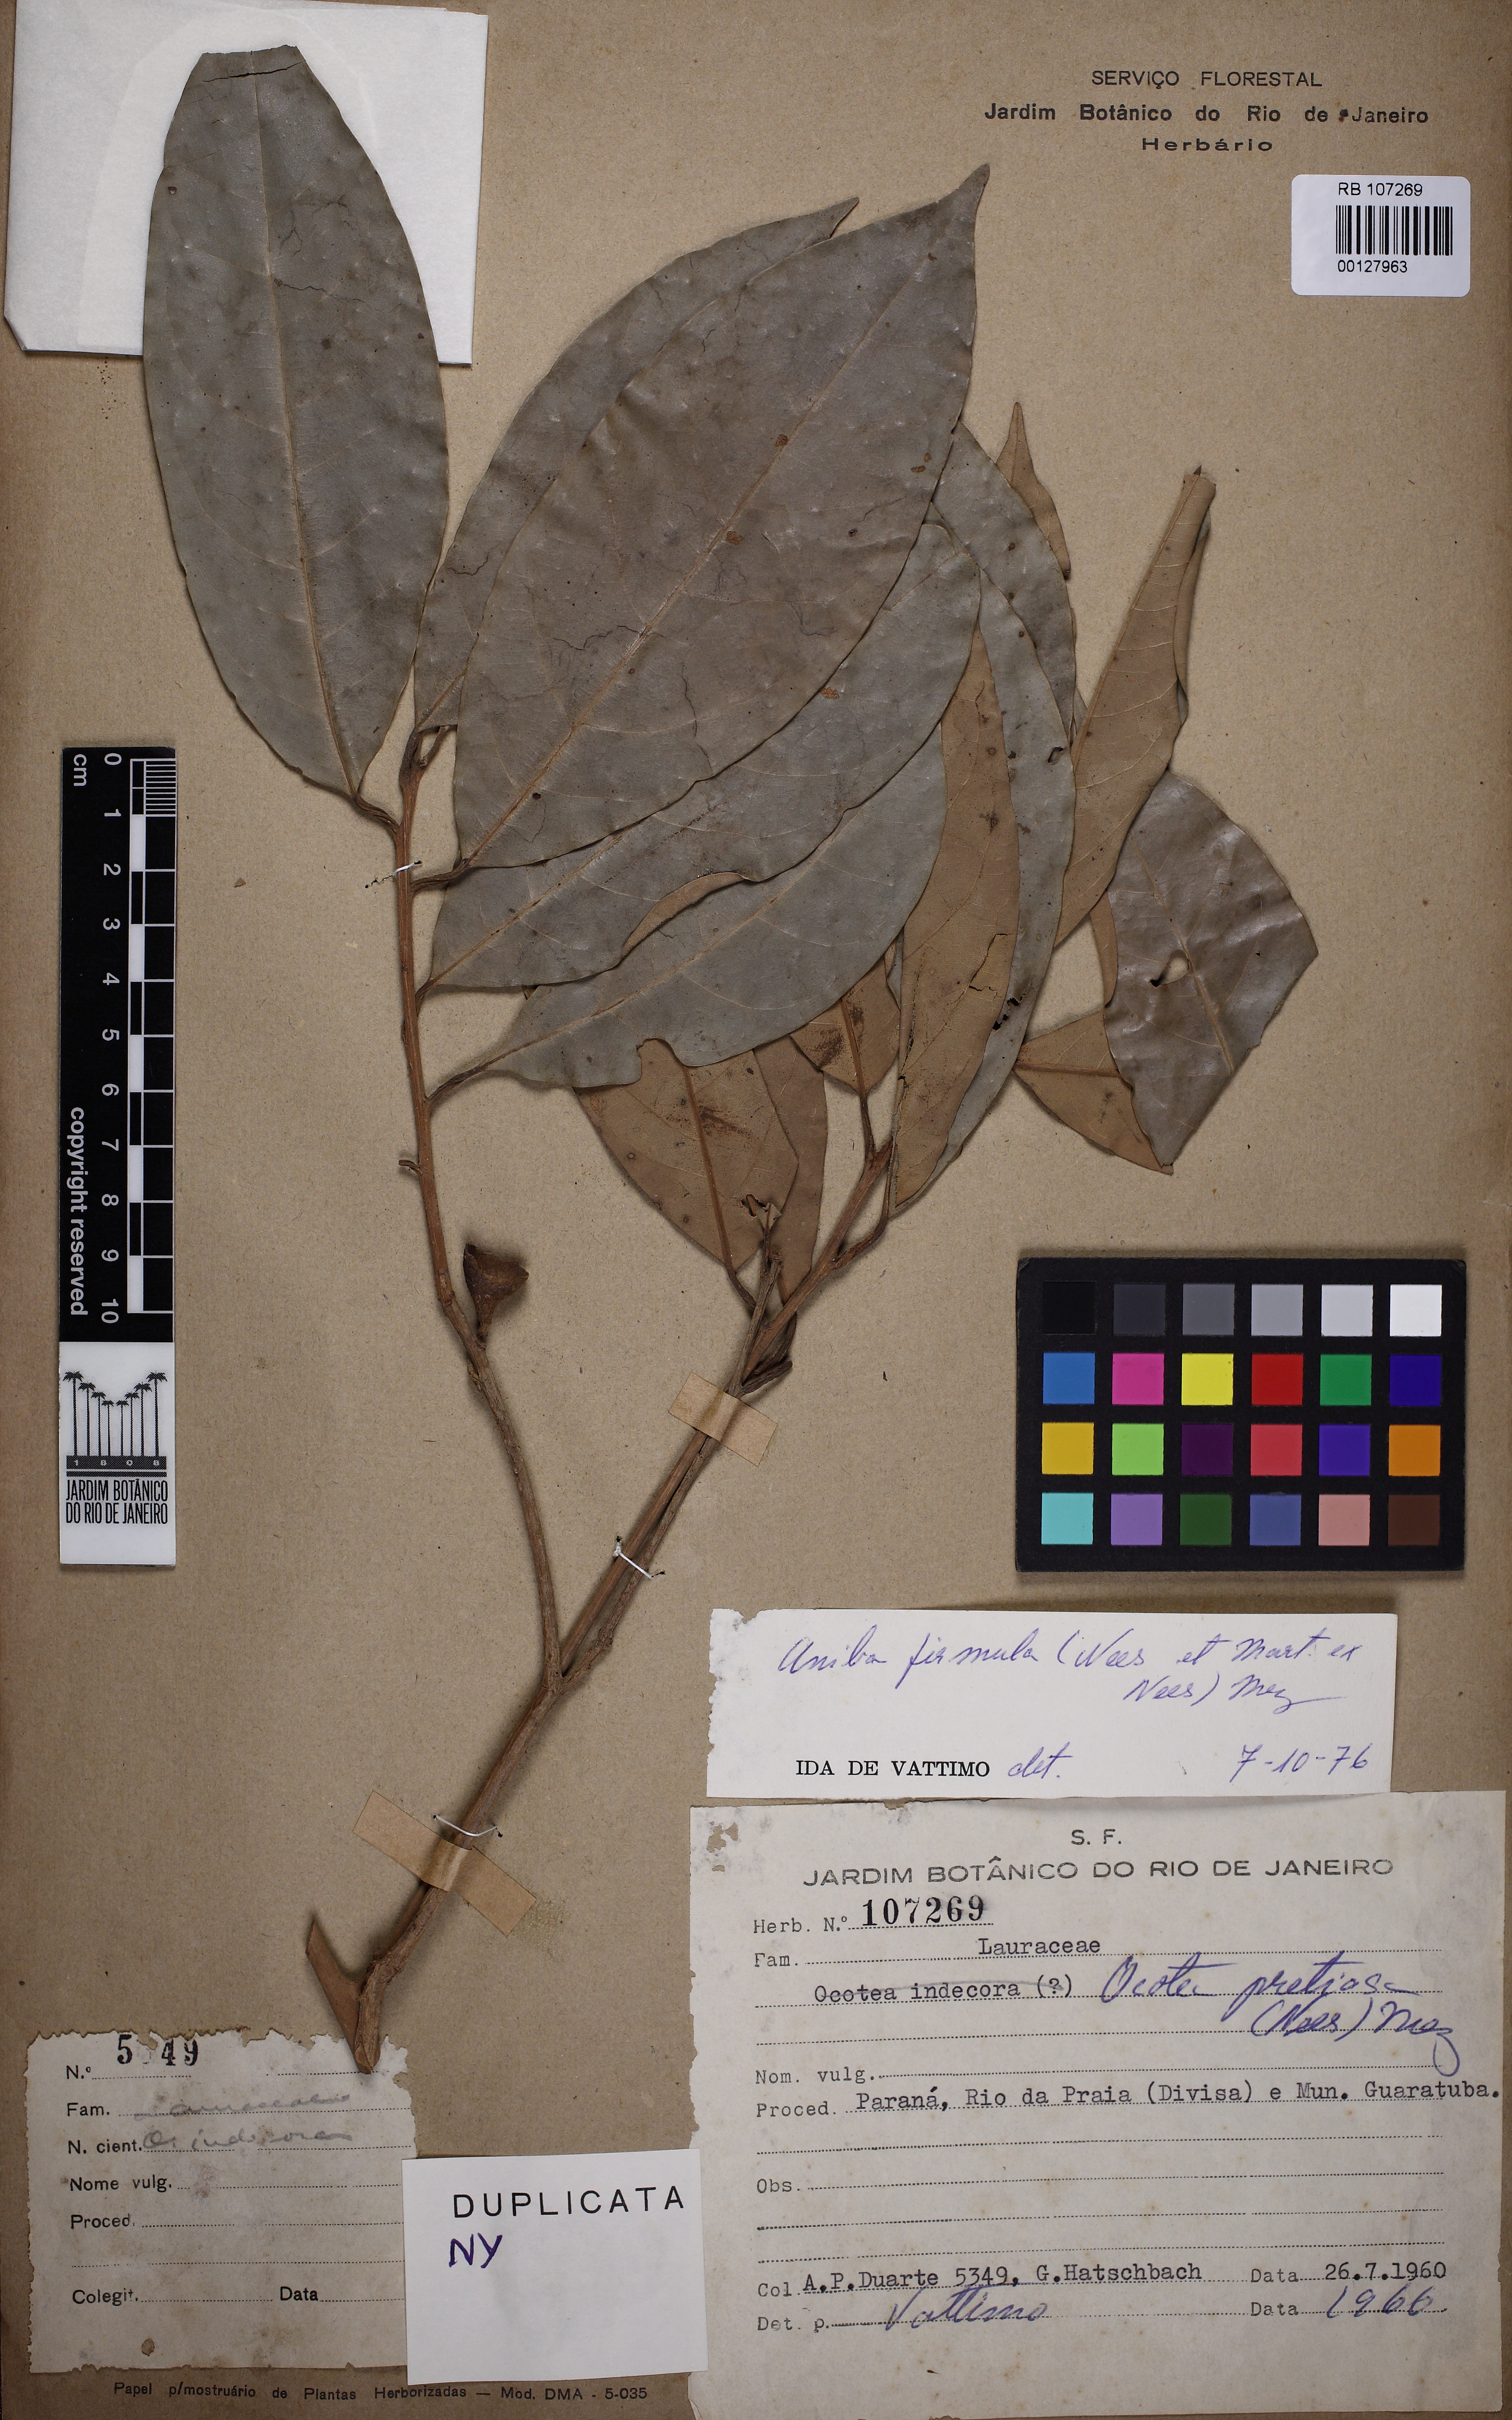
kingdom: Plantae
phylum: Tracheophyta
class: Magnoliopsida
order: Laurales
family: Lauraceae
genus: Aniba
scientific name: Aniba firmula
